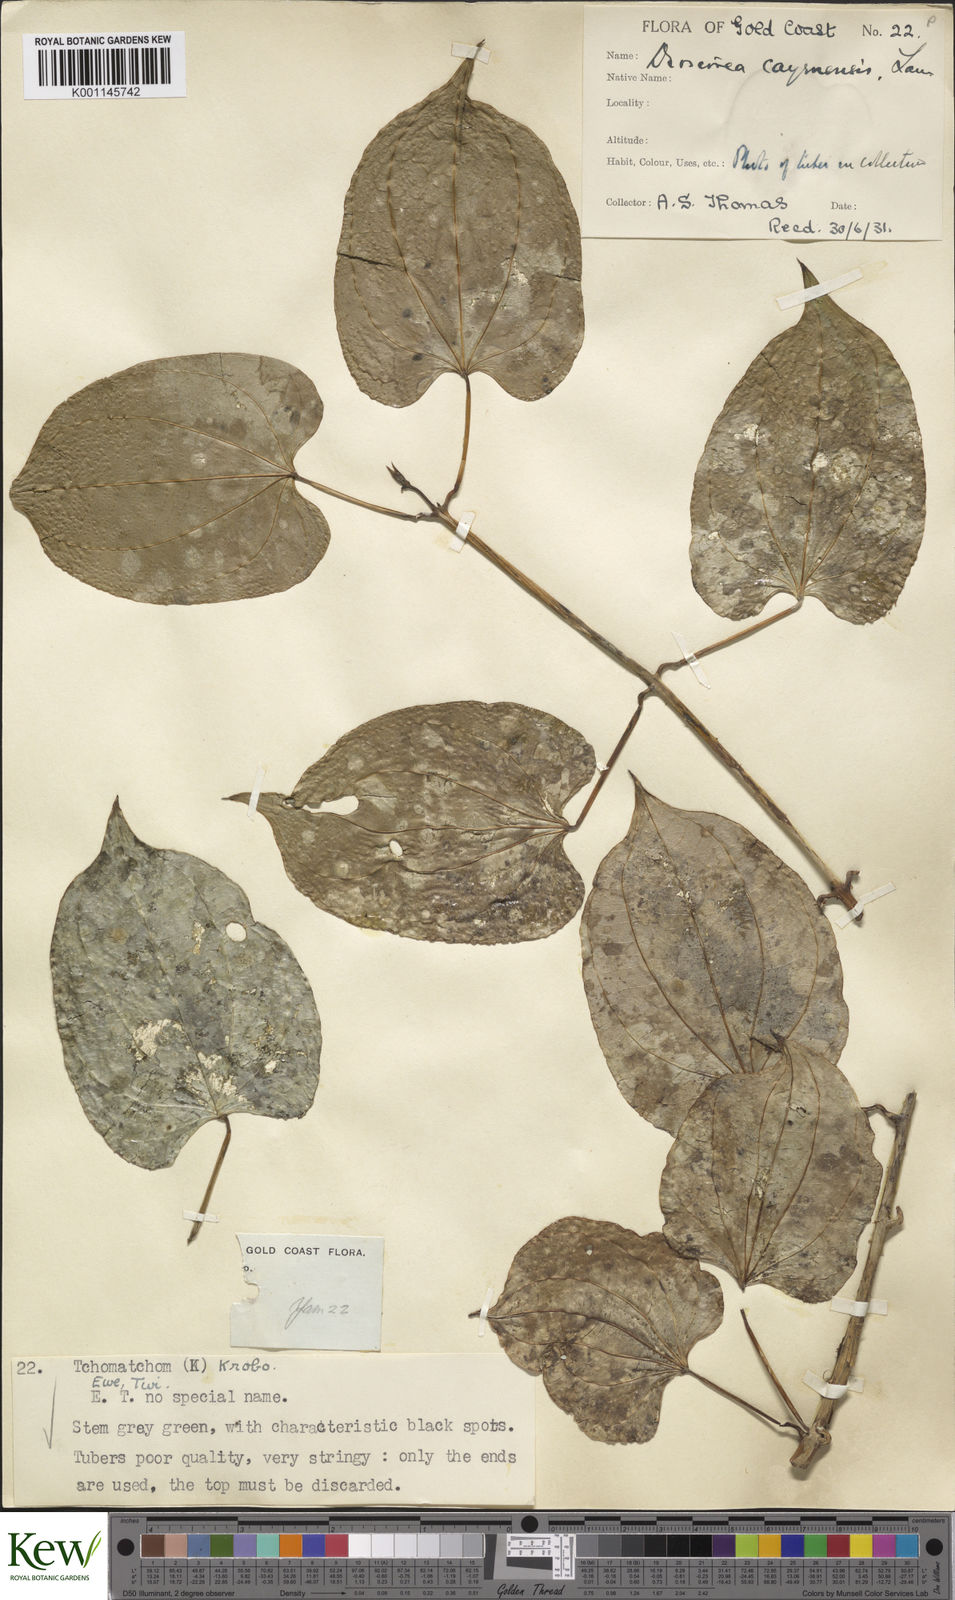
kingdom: Plantae
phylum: Tracheophyta
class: Liliopsida
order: Dioscoreales
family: Dioscoreaceae
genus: Dioscorea
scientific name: Dioscorea cayenensis
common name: Attoto yam
